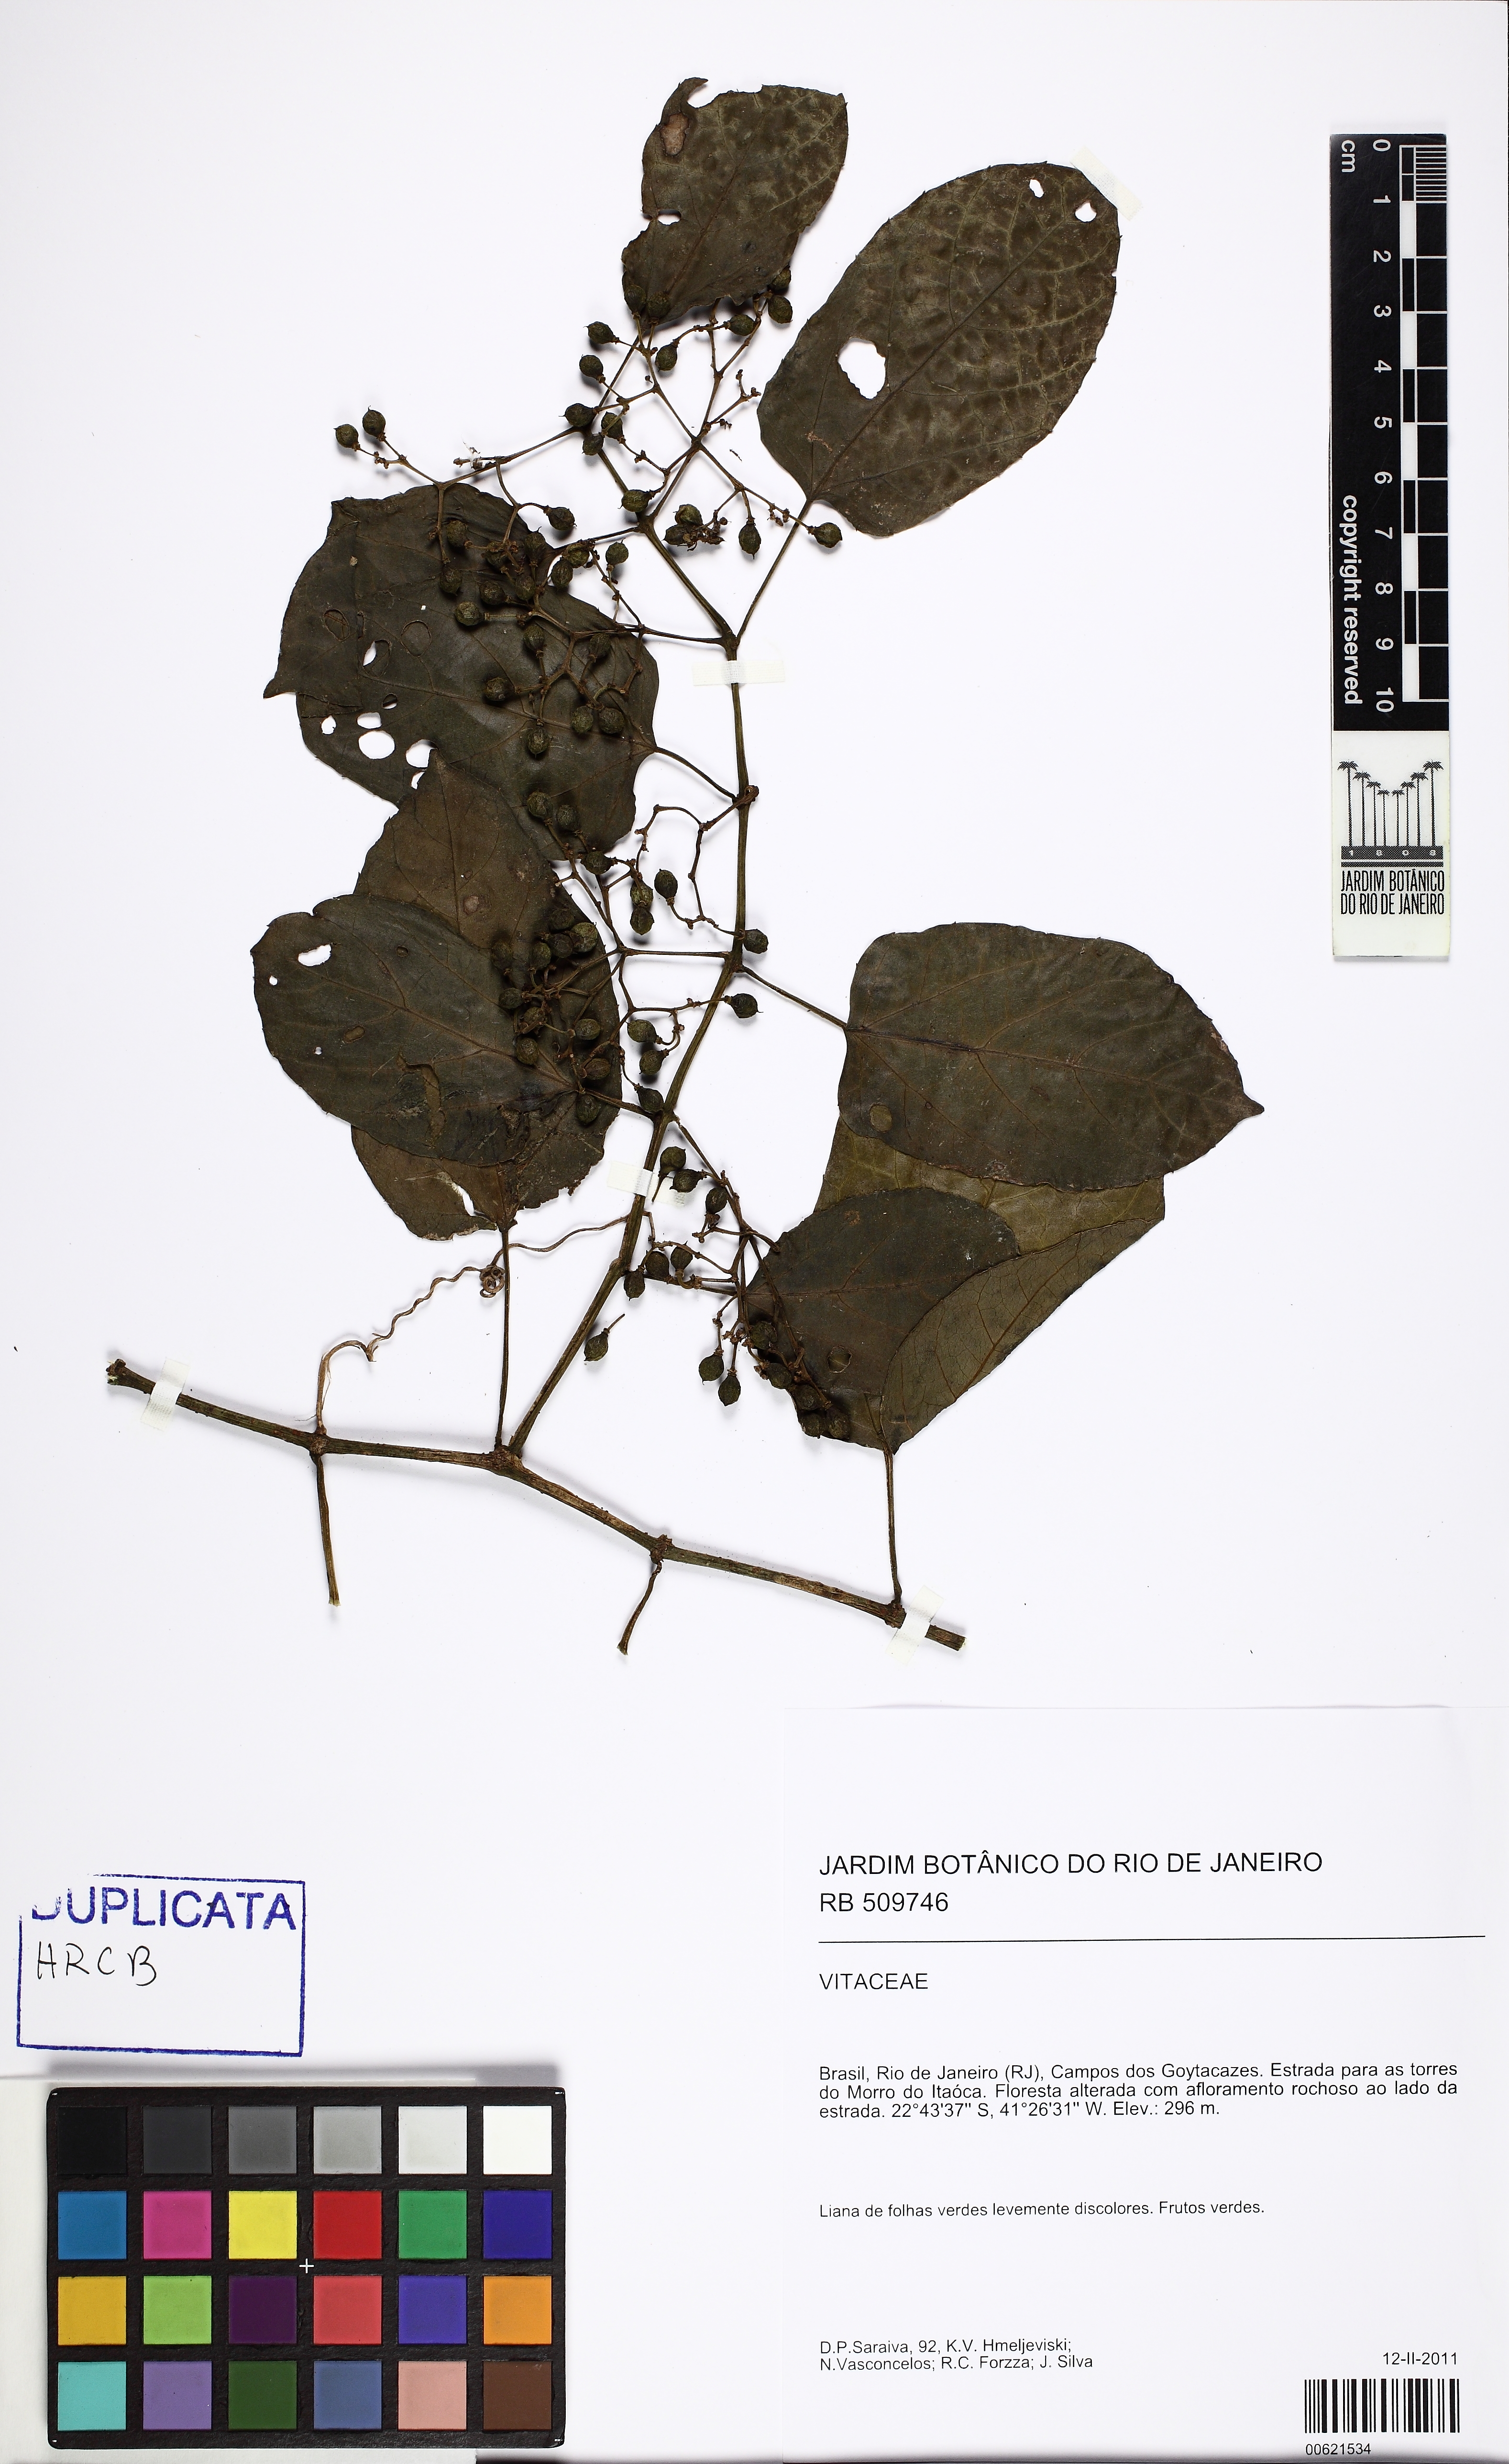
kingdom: Plantae
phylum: Tracheophyta
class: Magnoliopsida
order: Vitales
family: Vitaceae
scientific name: Vitaceae
